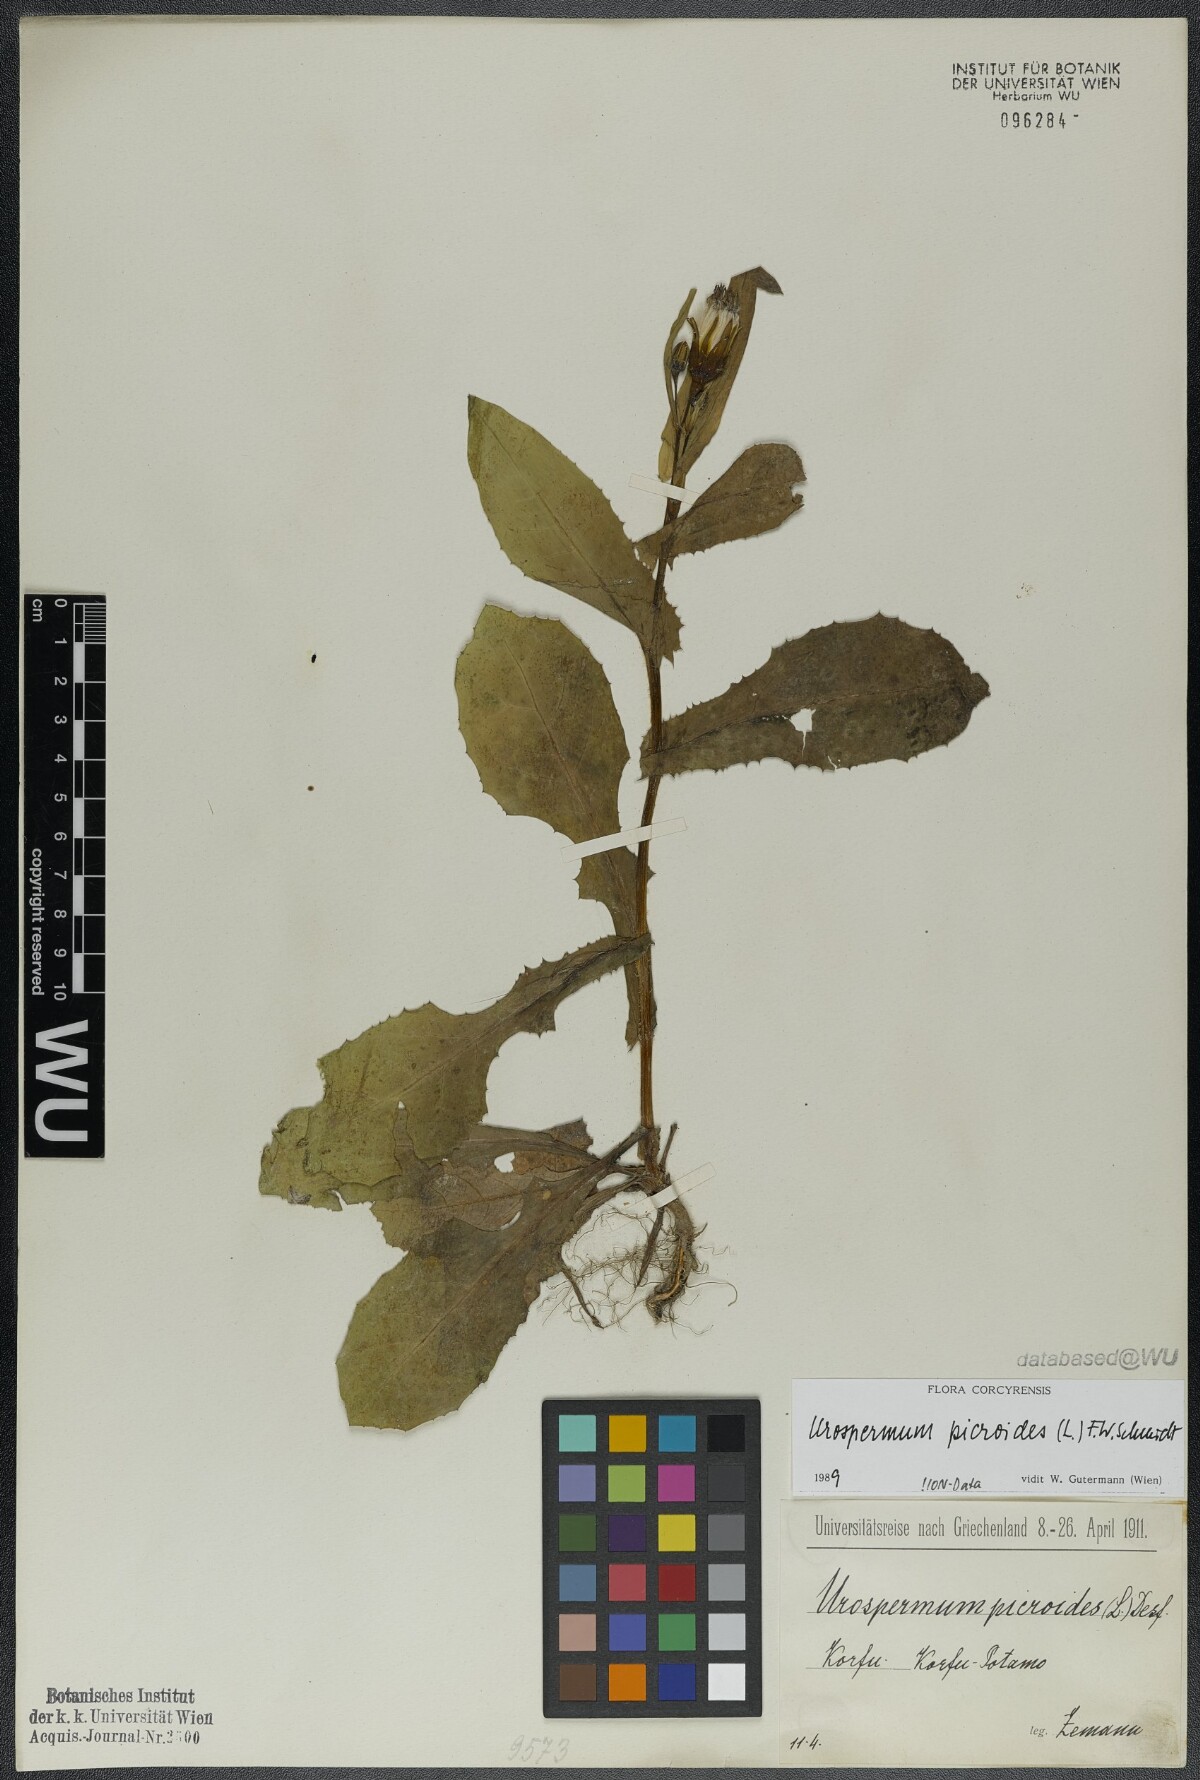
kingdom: Plantae
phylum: Tracheophyta
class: Magnoliopsida
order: Asterales
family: Asteraceae
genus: Urospermum
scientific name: Urospermum picroides
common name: False hawkbit
